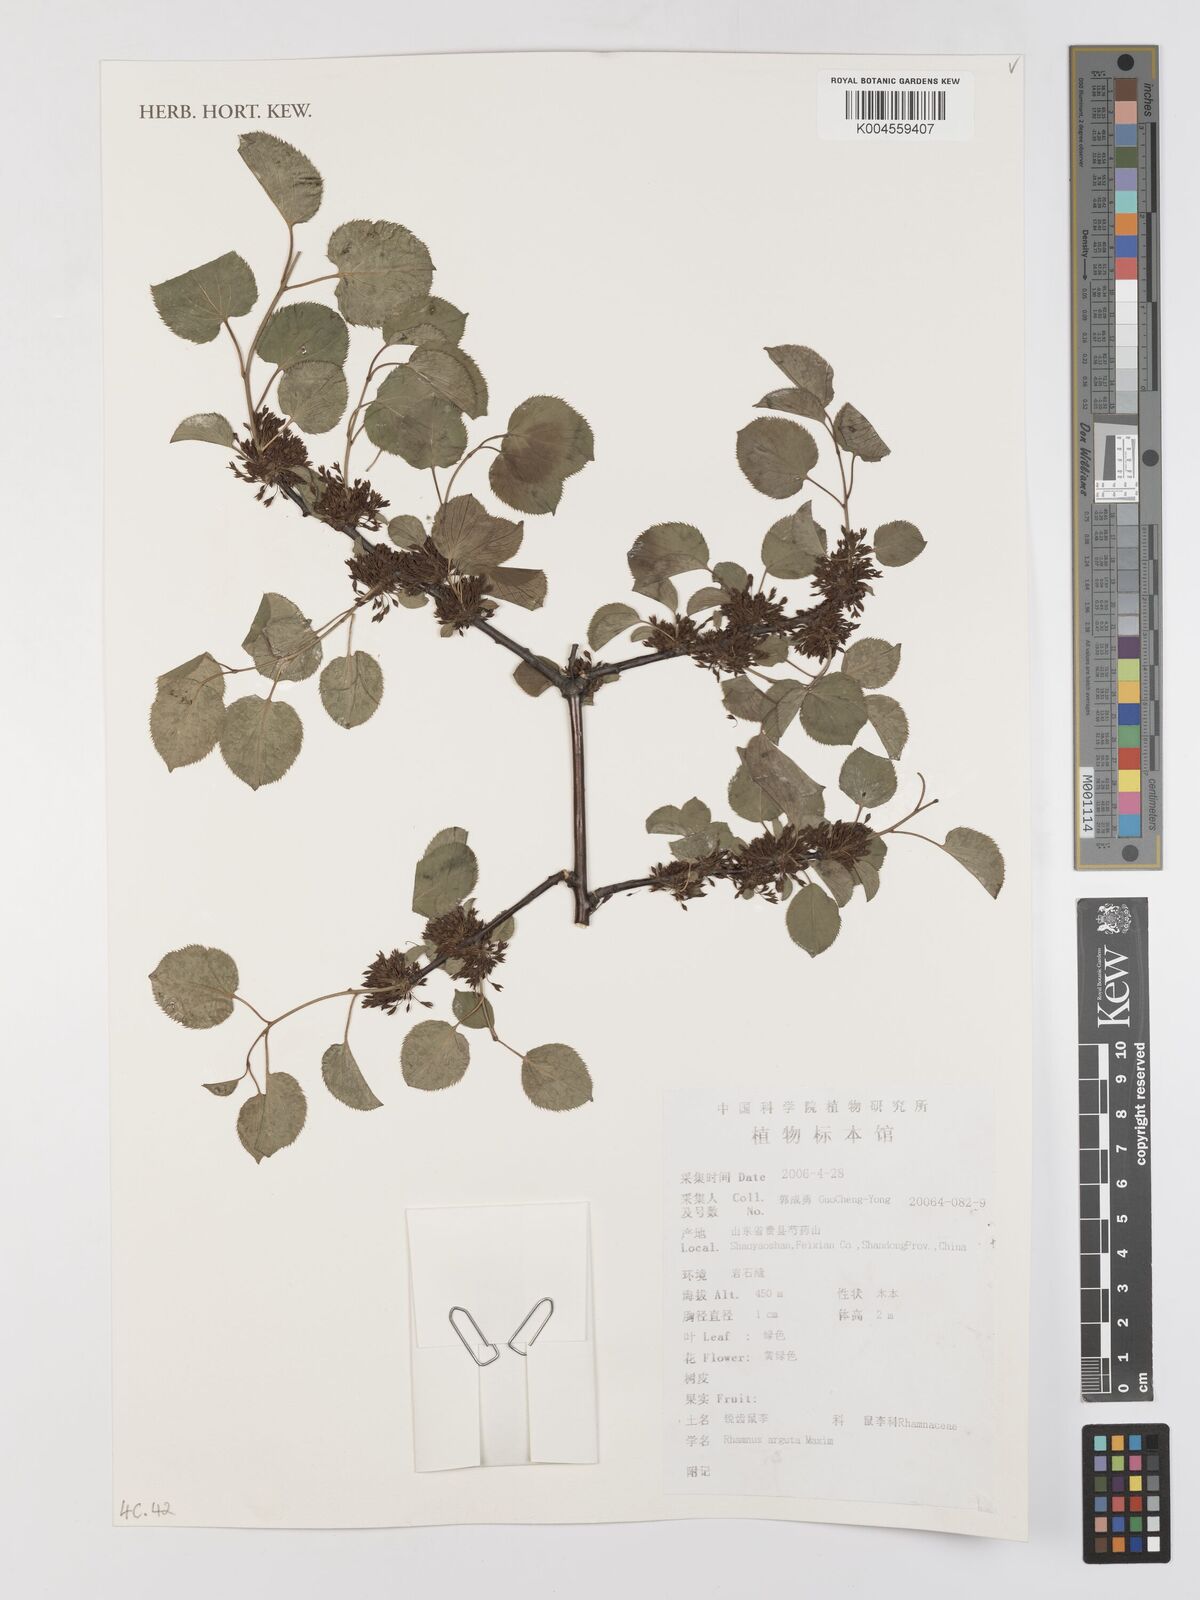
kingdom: Plantae
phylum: Tracheophyta
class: Magnoliopsida
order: Rosales
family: Rhamnaceae
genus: Rhamnus
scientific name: Rhamnus arguta
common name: Sharp-tooth buckthorn
